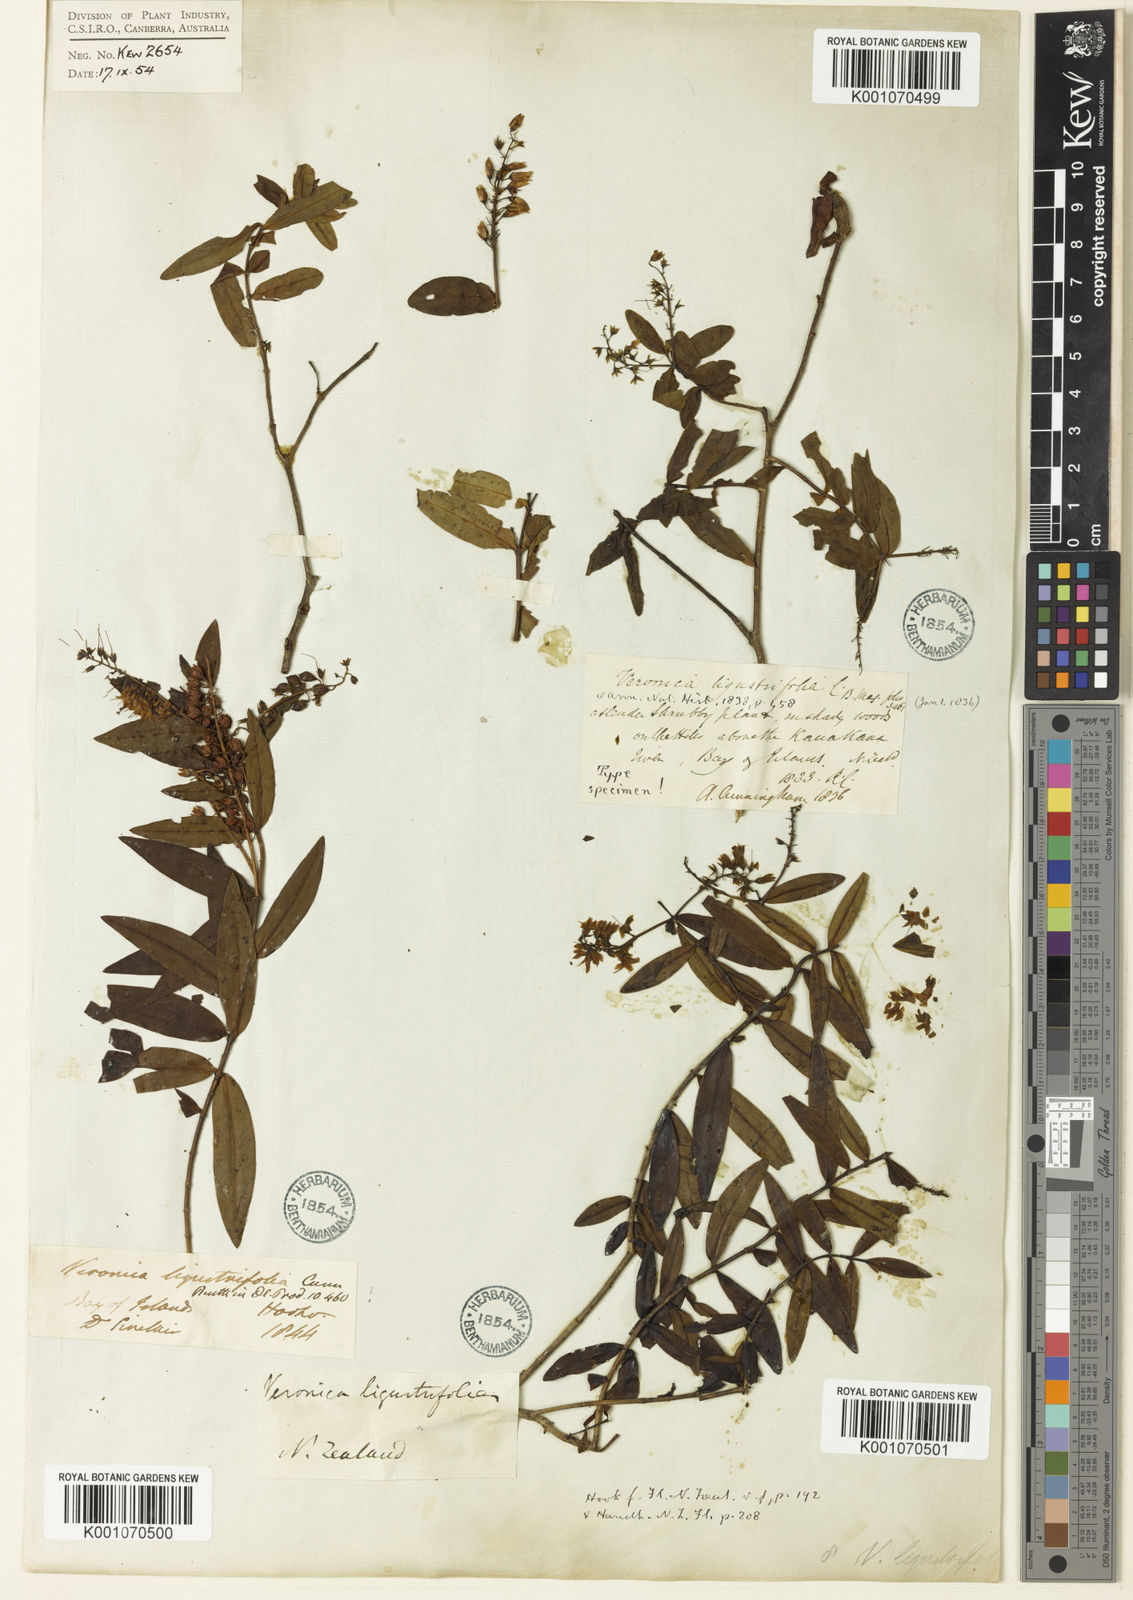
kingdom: Plantae
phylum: Tracheophyta
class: Magnoliopsida
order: Lamiales
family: Plantaginaceae
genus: Veronica
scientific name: Veronica ligustrifolia
